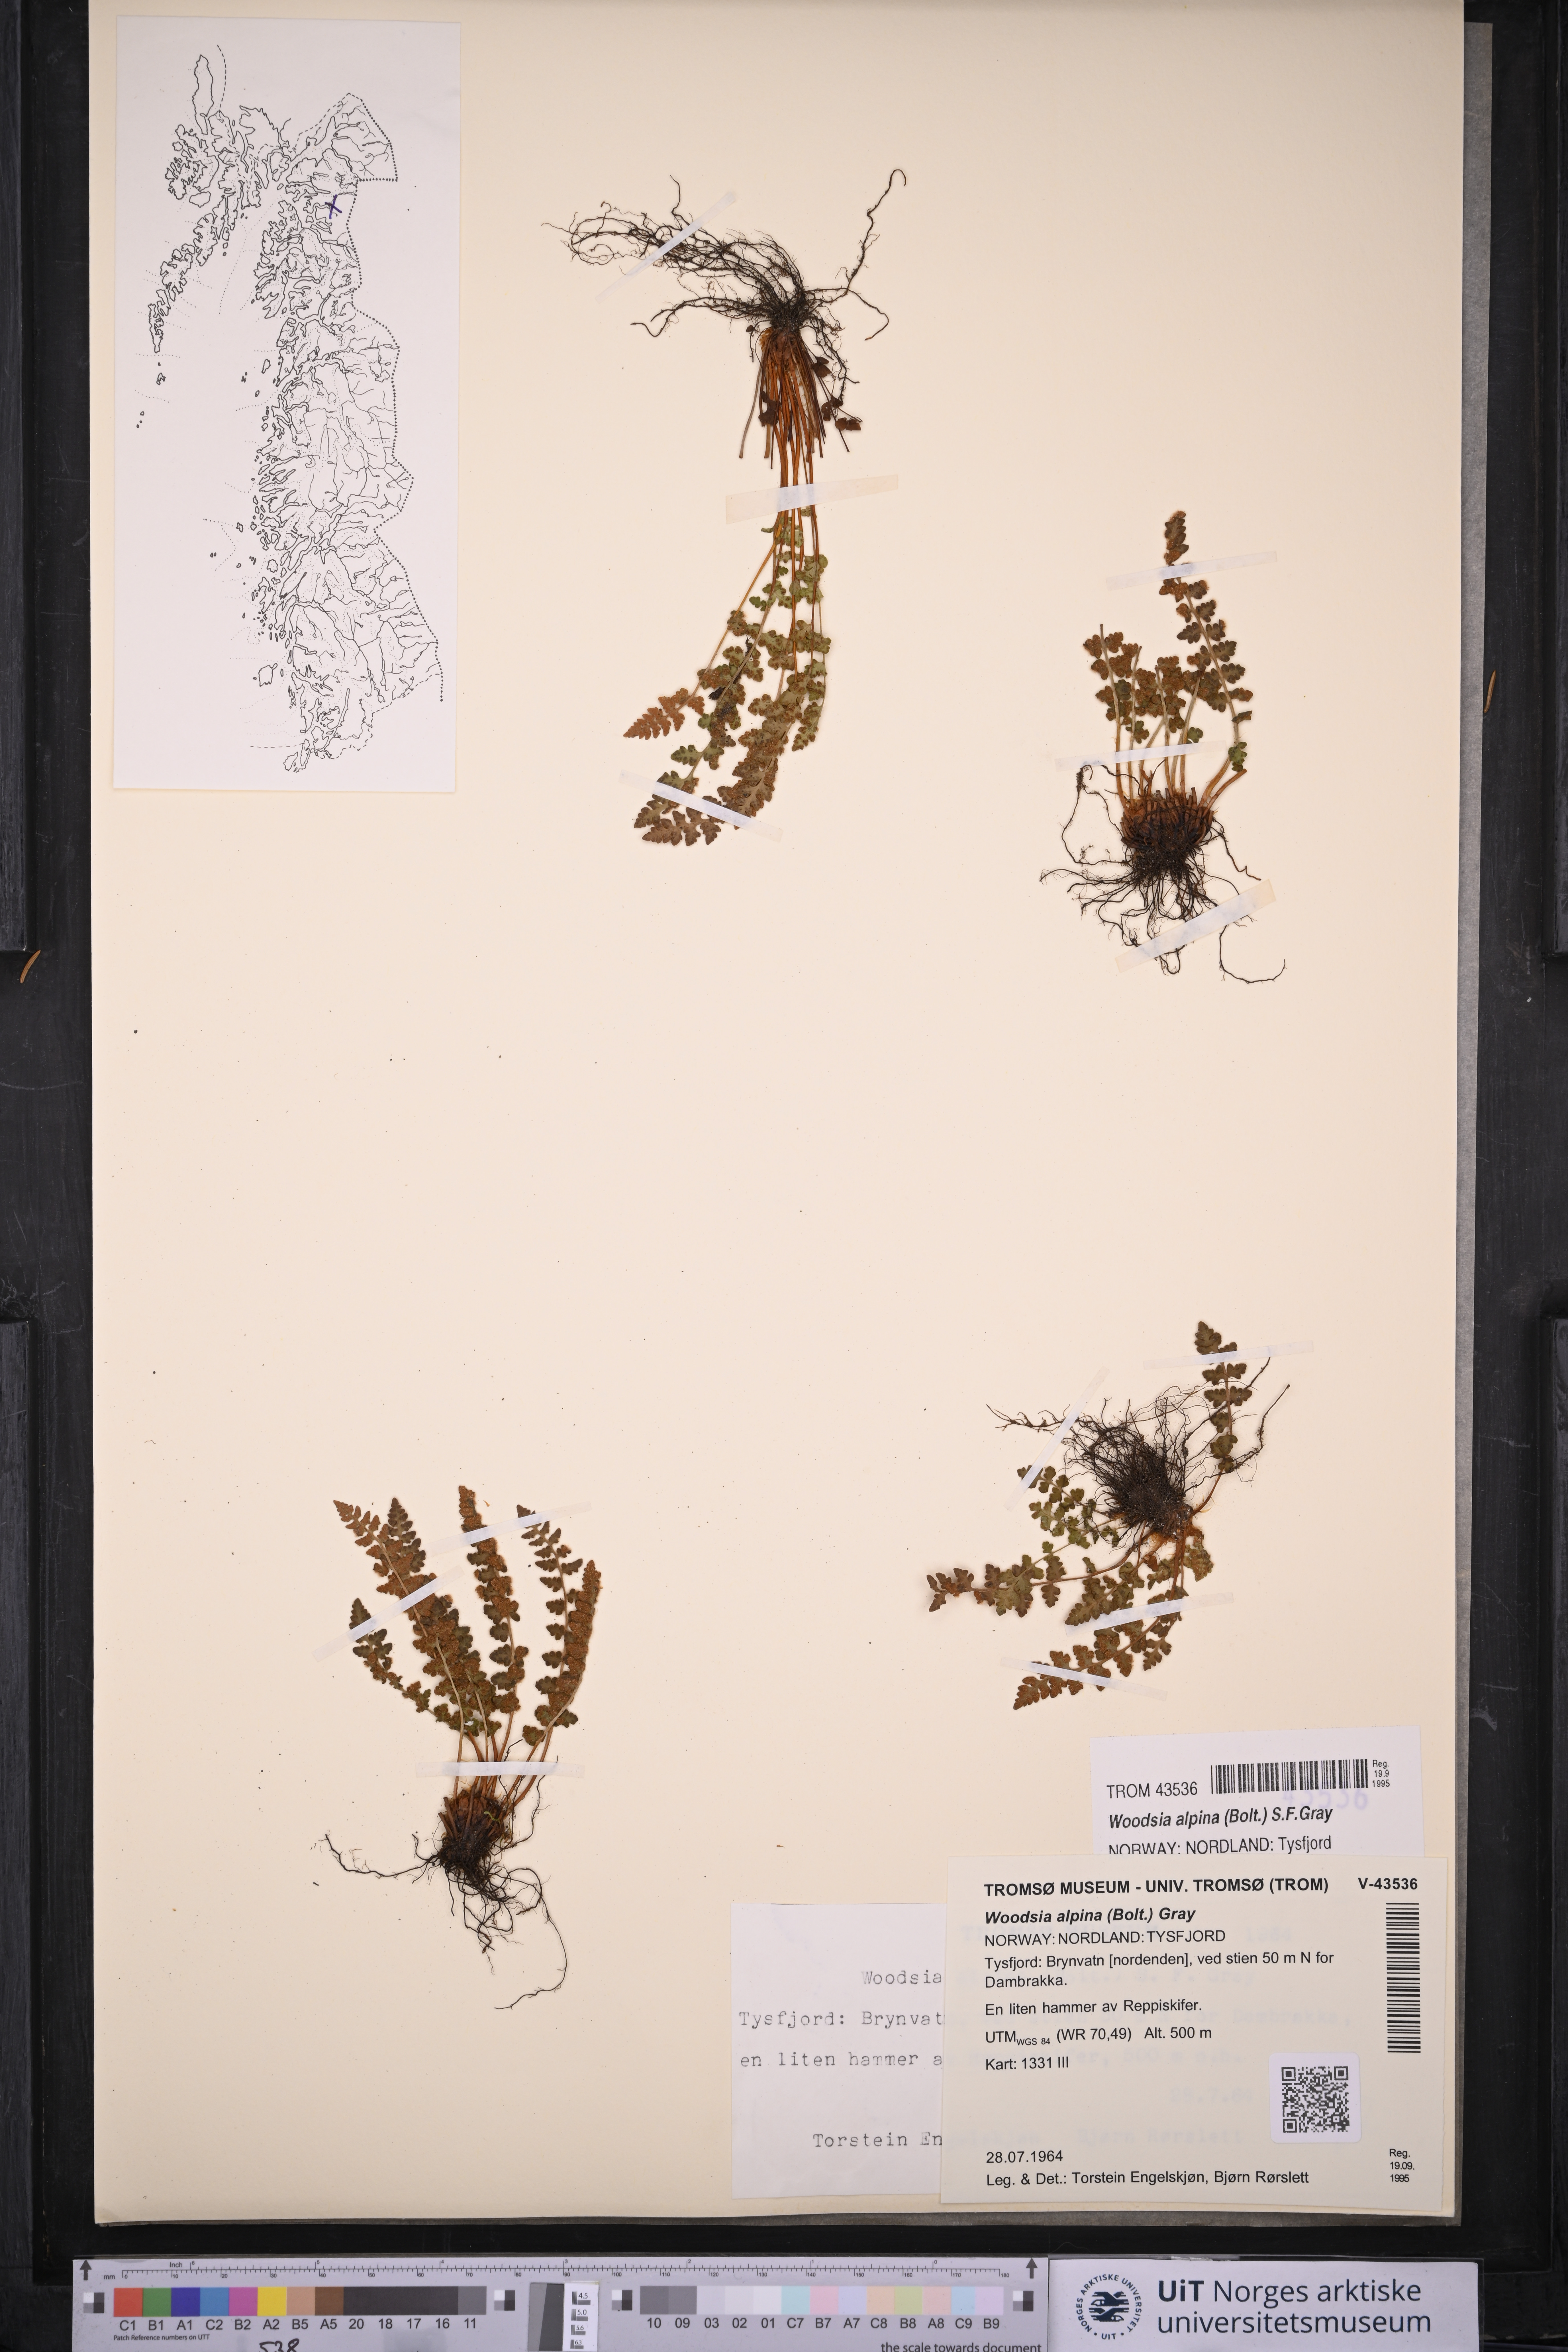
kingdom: Plantae
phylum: Tracheophyta
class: Polypodiopsida
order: Polypodiales
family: Woodsiaceae
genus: Woodsia
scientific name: Woodsia alpina
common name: Alpine woodsia
